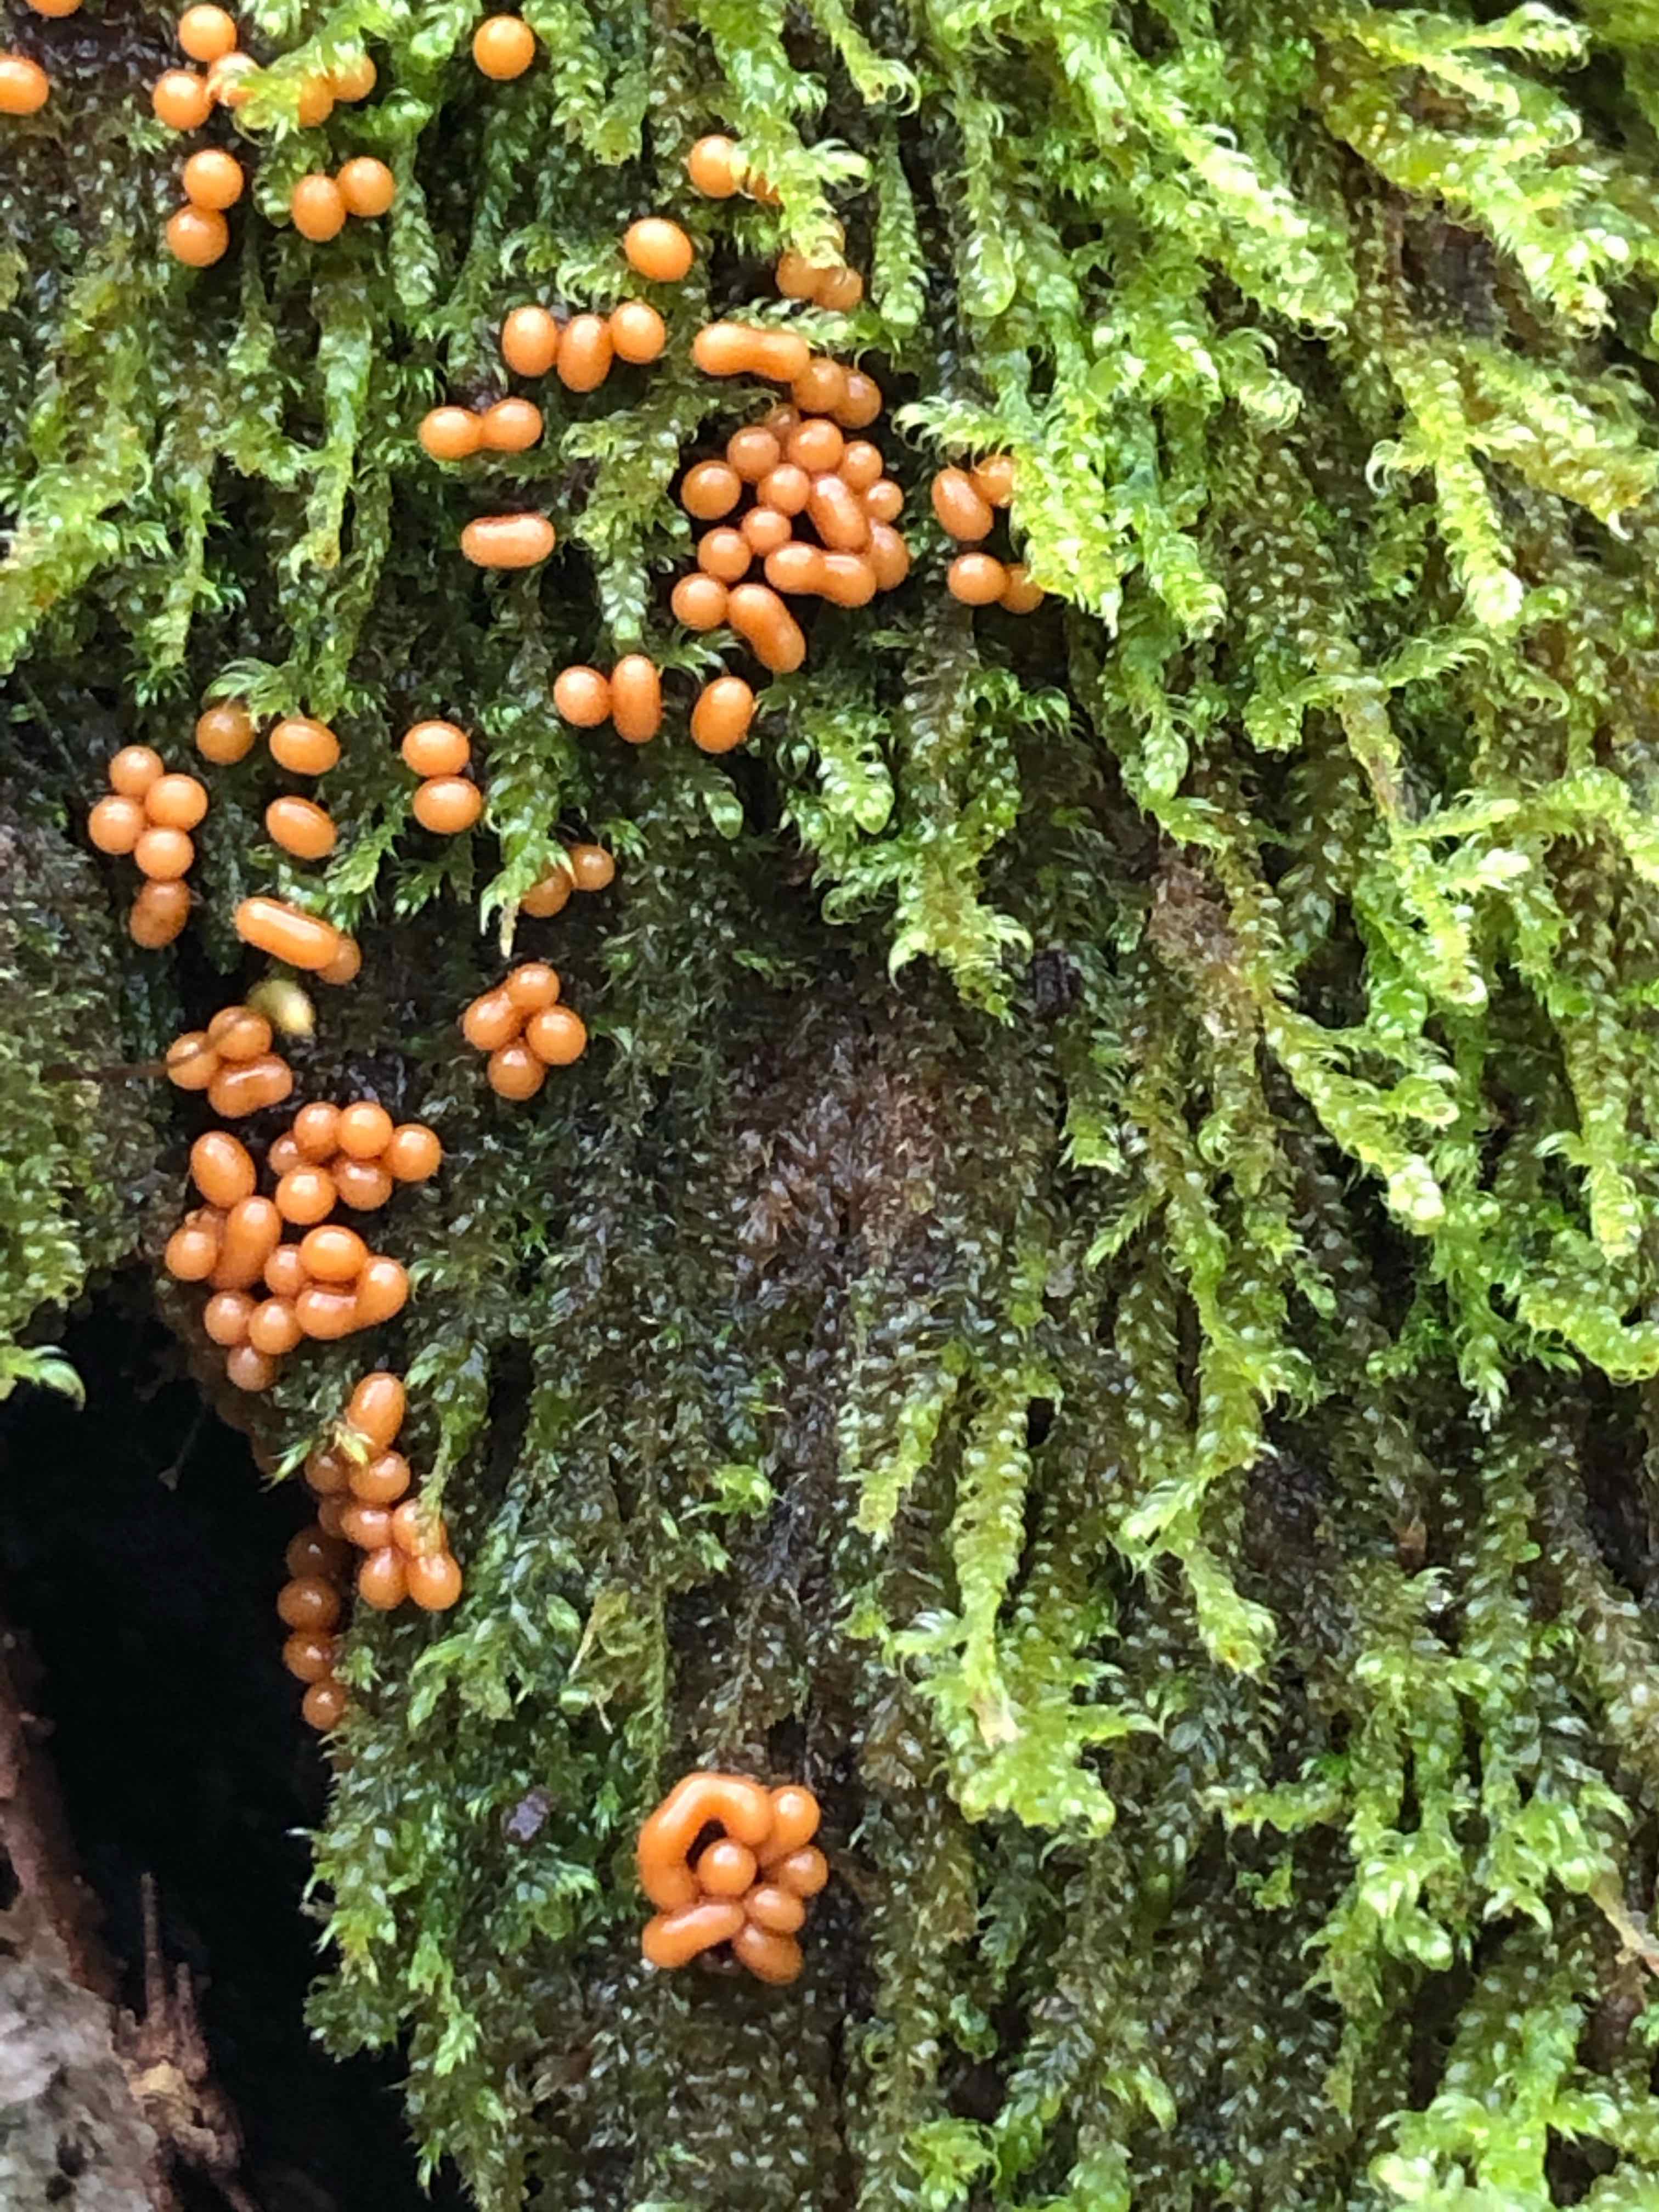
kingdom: Protozoa
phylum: Mycetozoa
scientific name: Mycetozoa
